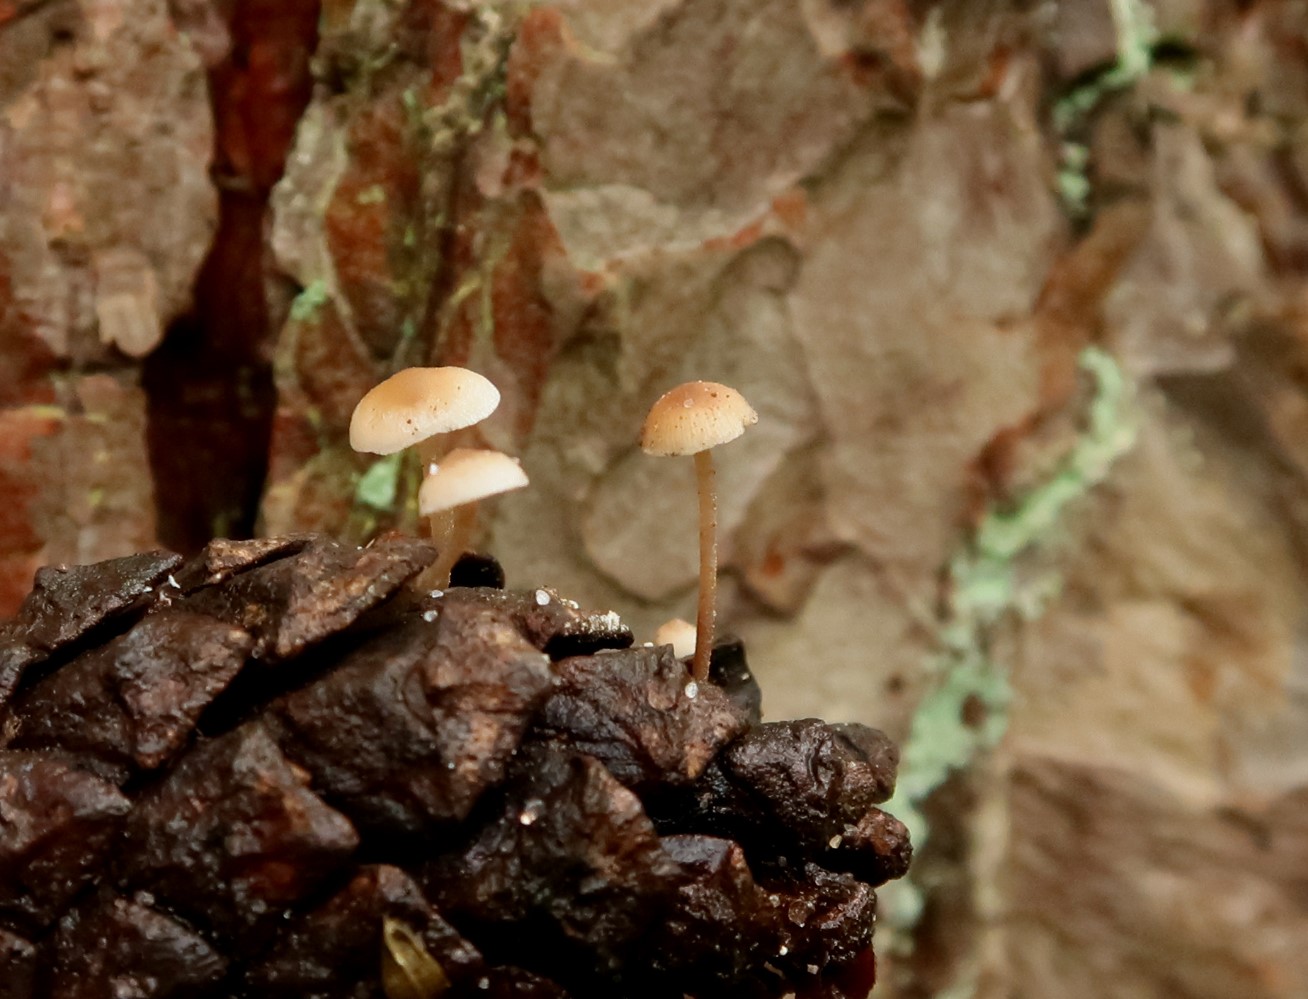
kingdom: Fungi
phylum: Basidiomycota
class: Agaricomycetes
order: Agaricales
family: Marasmiaceae
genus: Baeospora
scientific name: Baeospora myosura
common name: koglebruskhat
